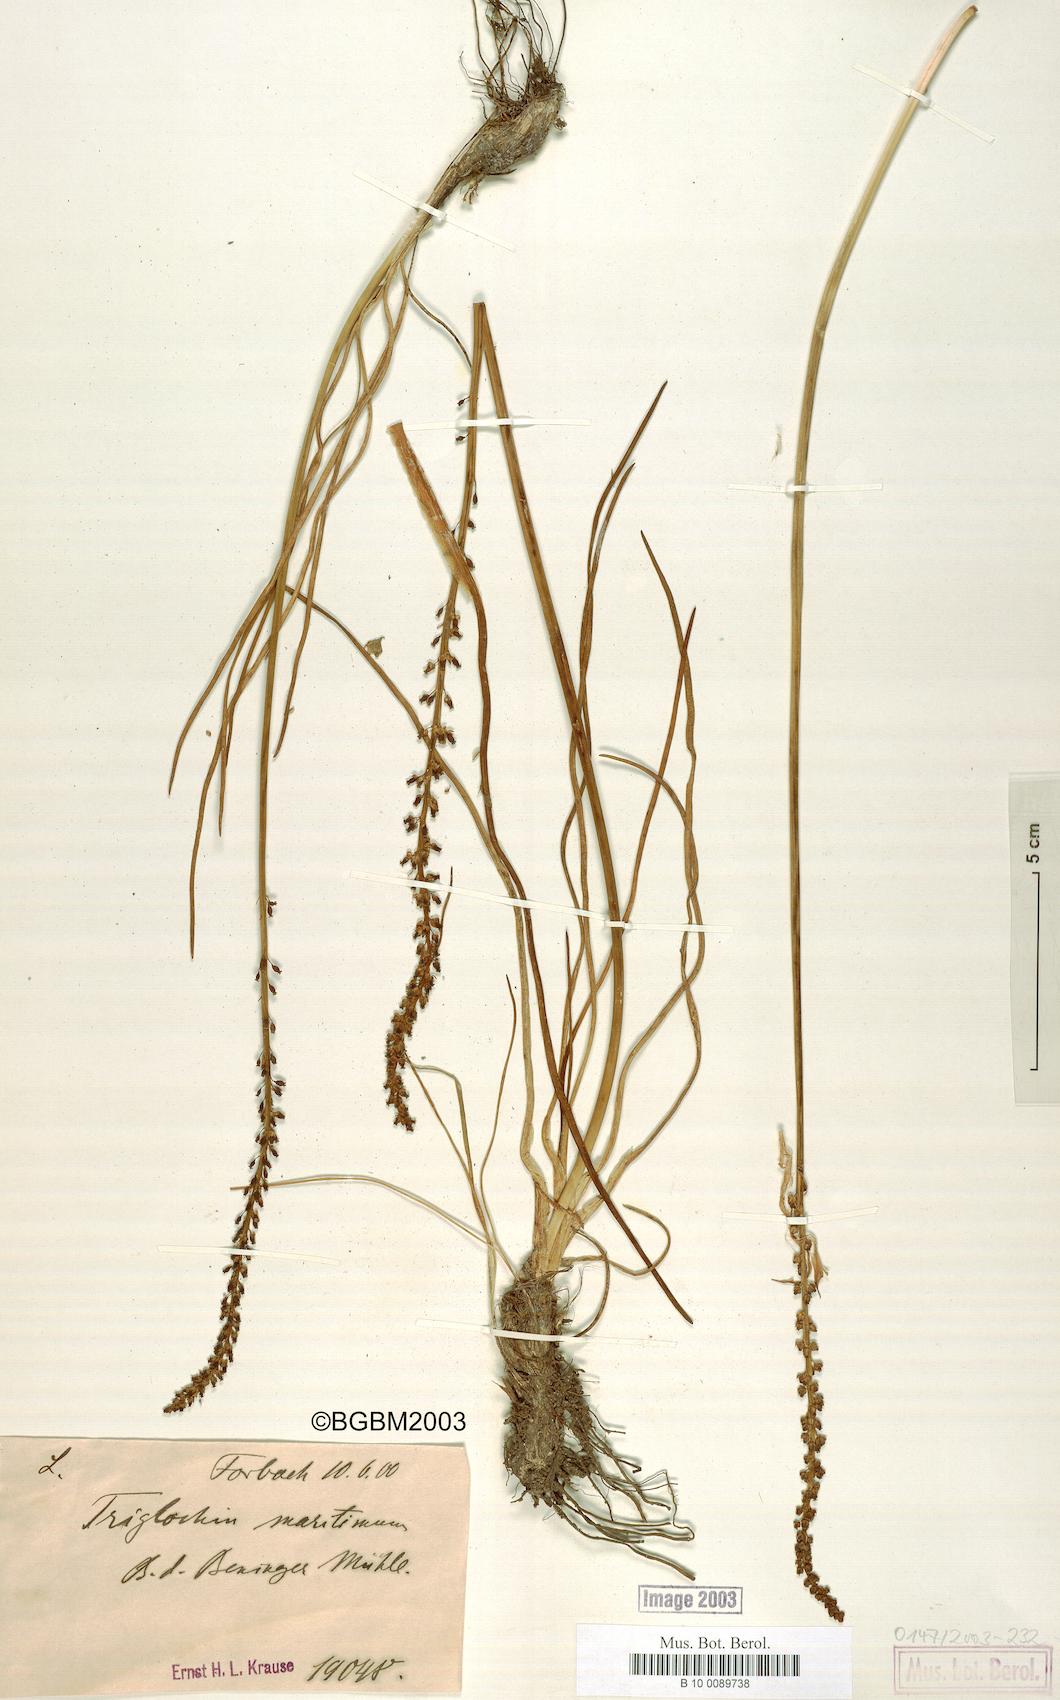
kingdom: Plantae
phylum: Tracheophyta
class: Liliopsida
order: Alismatales
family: Juncaginaceae
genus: Triglochin
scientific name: Triglochin maritima
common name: Sea arrowgrass
